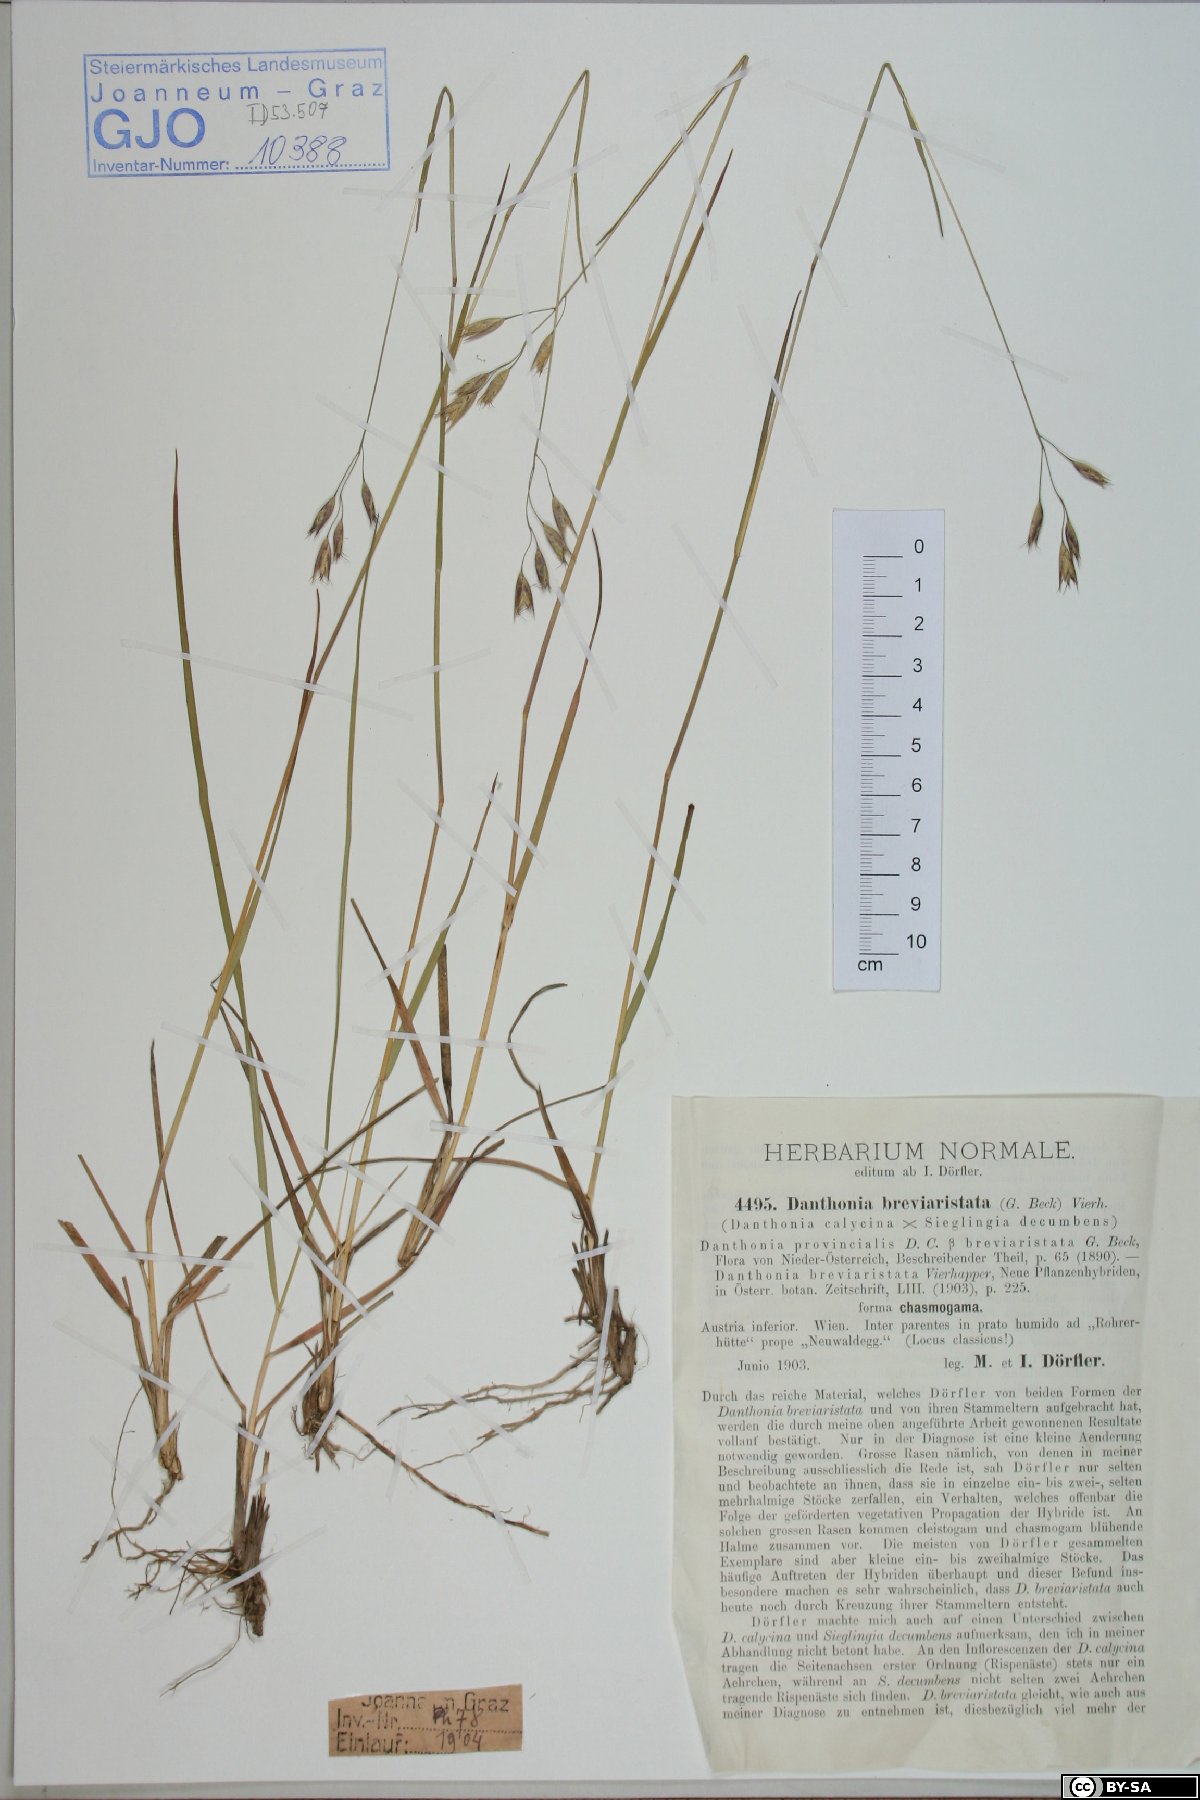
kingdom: Plantae
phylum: Tracheophyta
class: Liliopsida
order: Poales
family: Poaceae
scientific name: Poaceae
